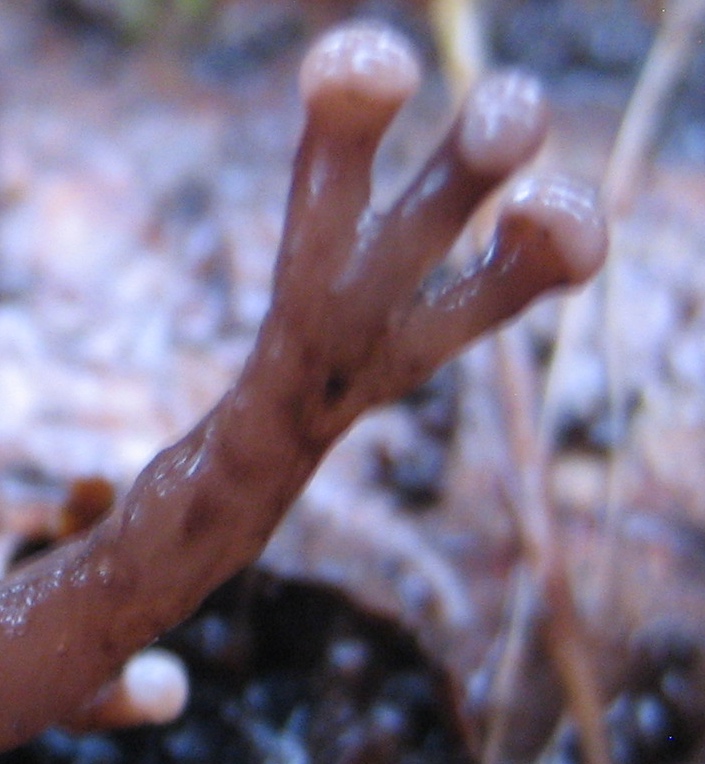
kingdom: Fungi
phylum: Ascomycota
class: Leotiomycetes
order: Helotiales
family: Gelatinodiscaceae
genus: Ascocoryne
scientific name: Ascocoryne albida
